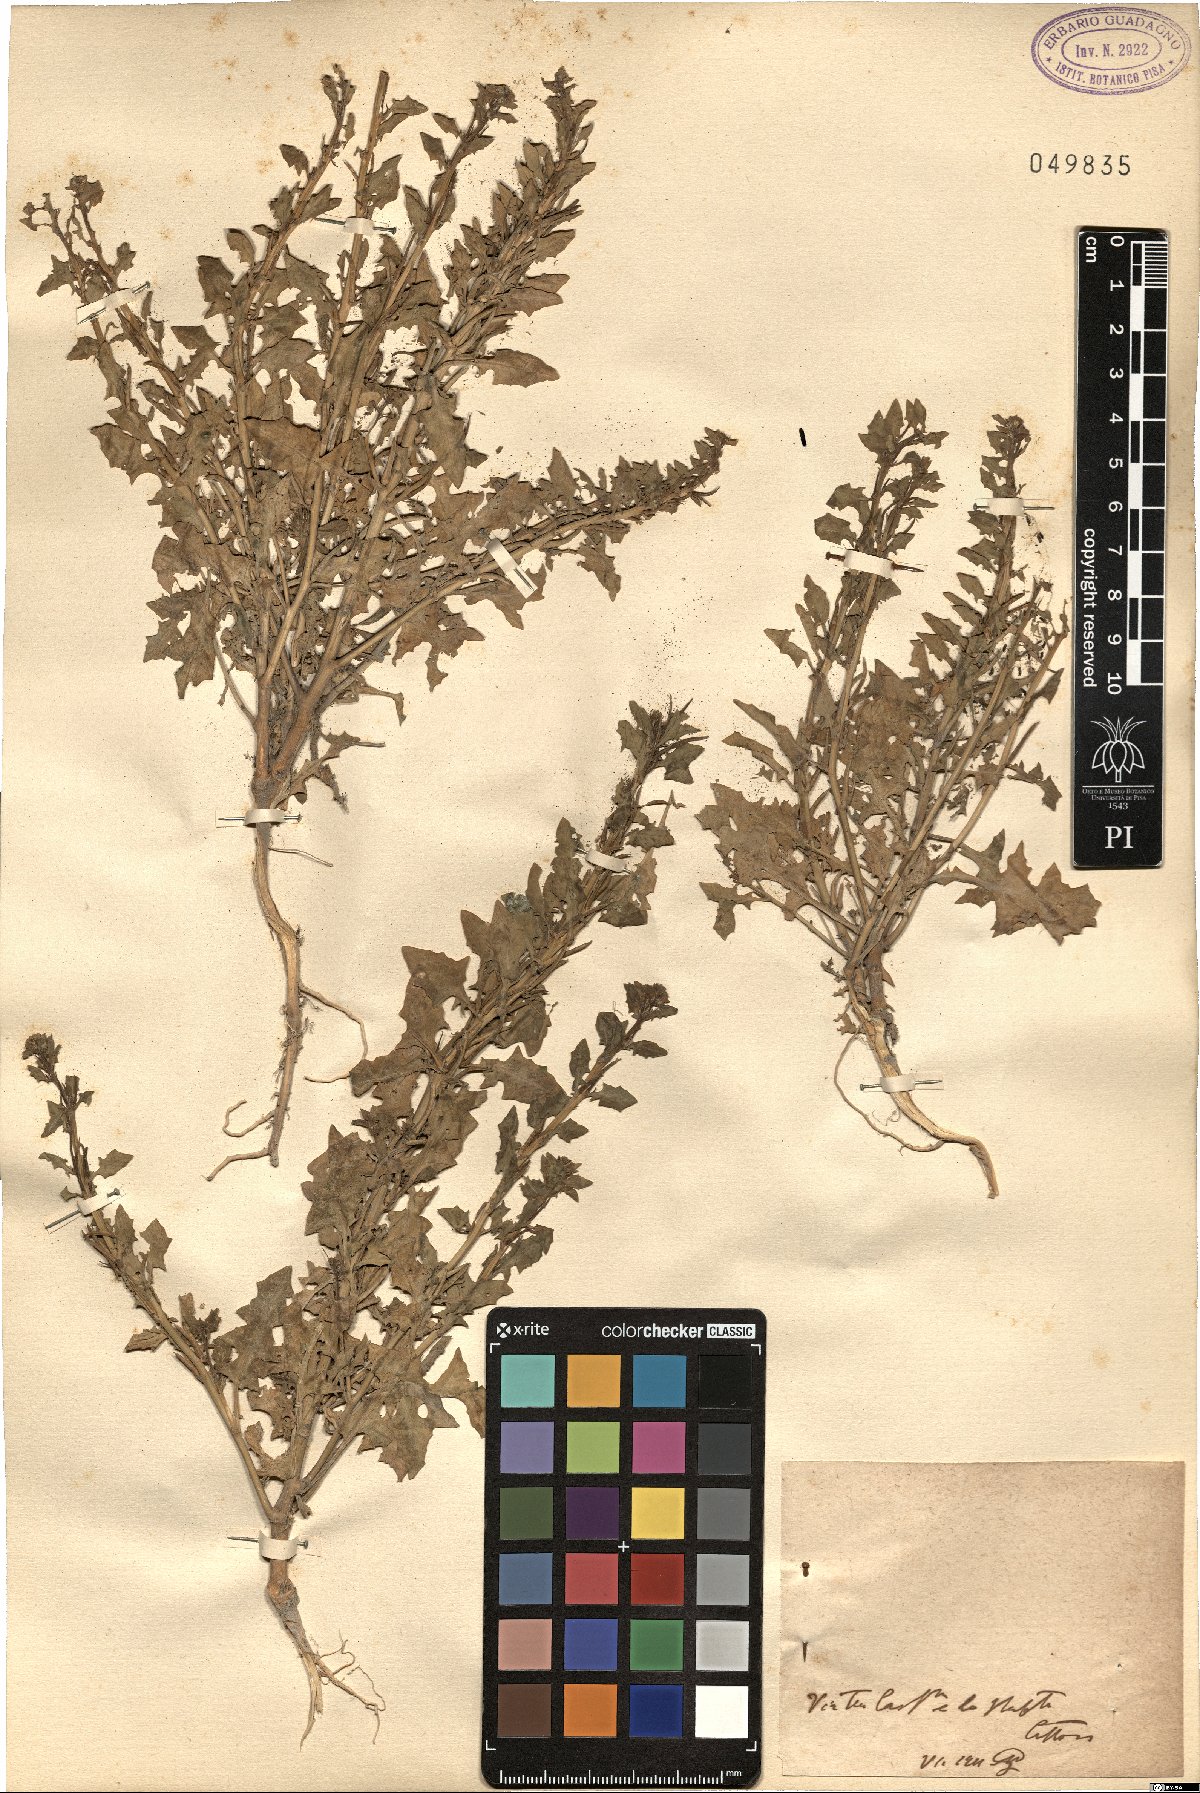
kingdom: Plantae
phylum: Tracheophyta
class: Magnoliopsida
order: Brassicales
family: Brassicaceae
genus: Sisymbrium
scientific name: Sisymbrium
